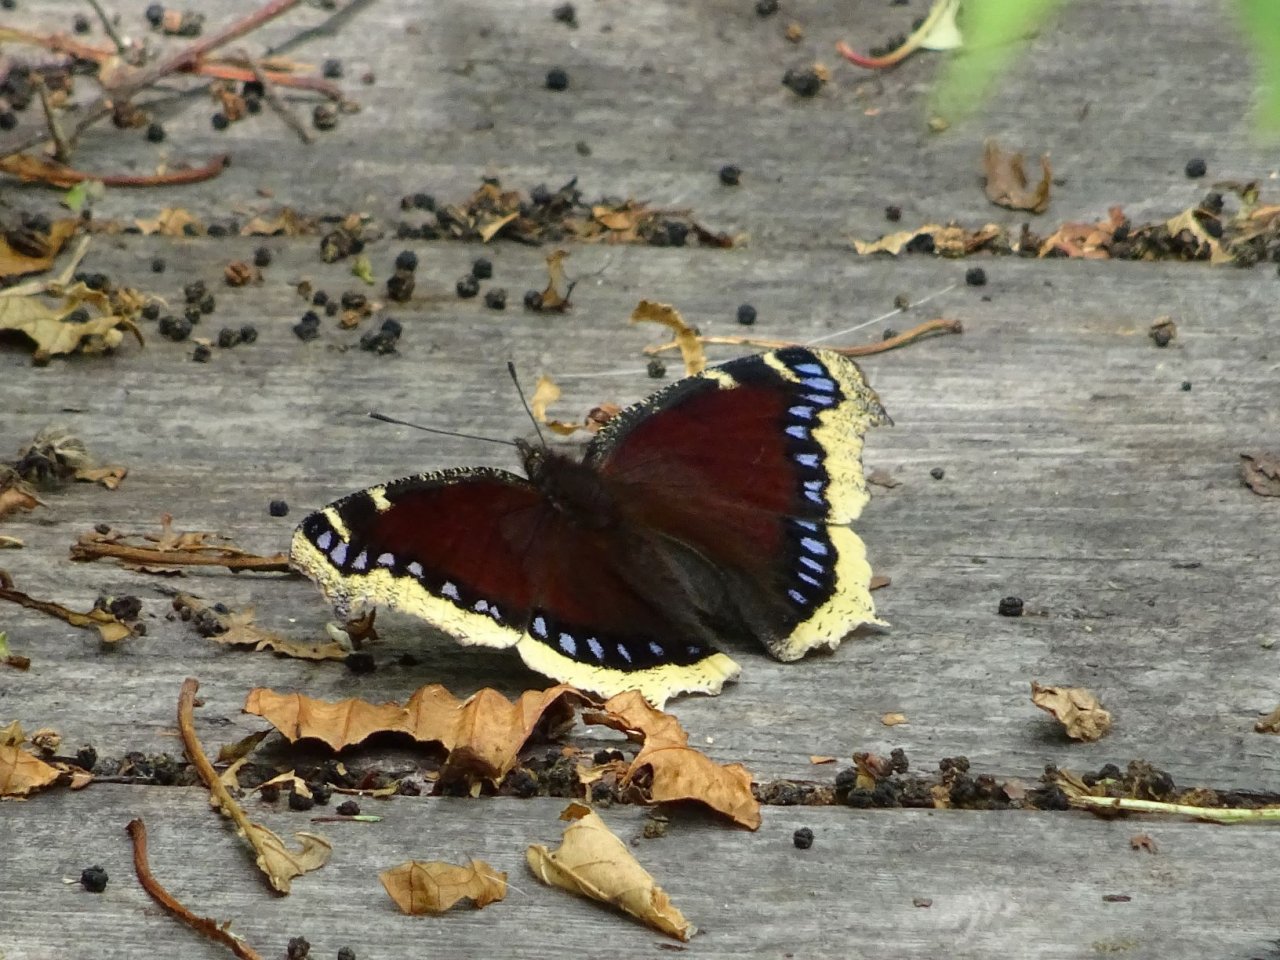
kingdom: Animalia
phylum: Arthropoda
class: Insecta
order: Lepidoptera
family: Nymphalidae
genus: Nymphalis
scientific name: Nymphalis antiopa
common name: Mourning Cloak
